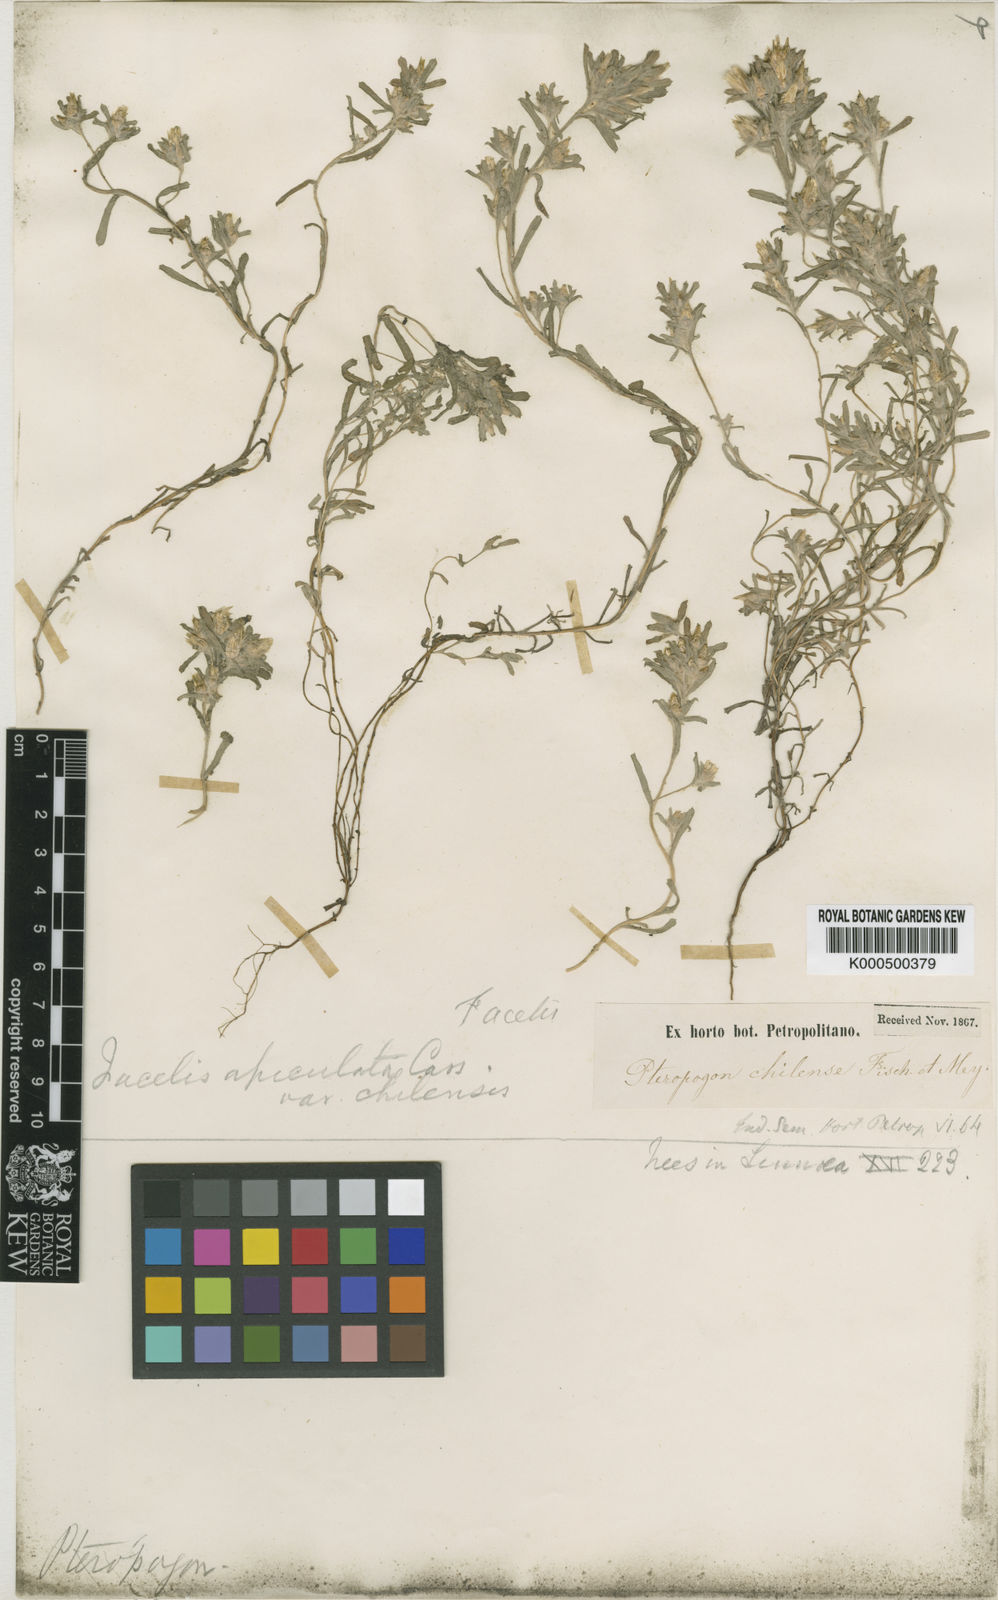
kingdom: Plantae
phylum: Tracheophyta
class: Magnoliopsida
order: Asterales
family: Asteraceae
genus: Facelis
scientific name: Facelis retusa
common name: Annual trampweed
